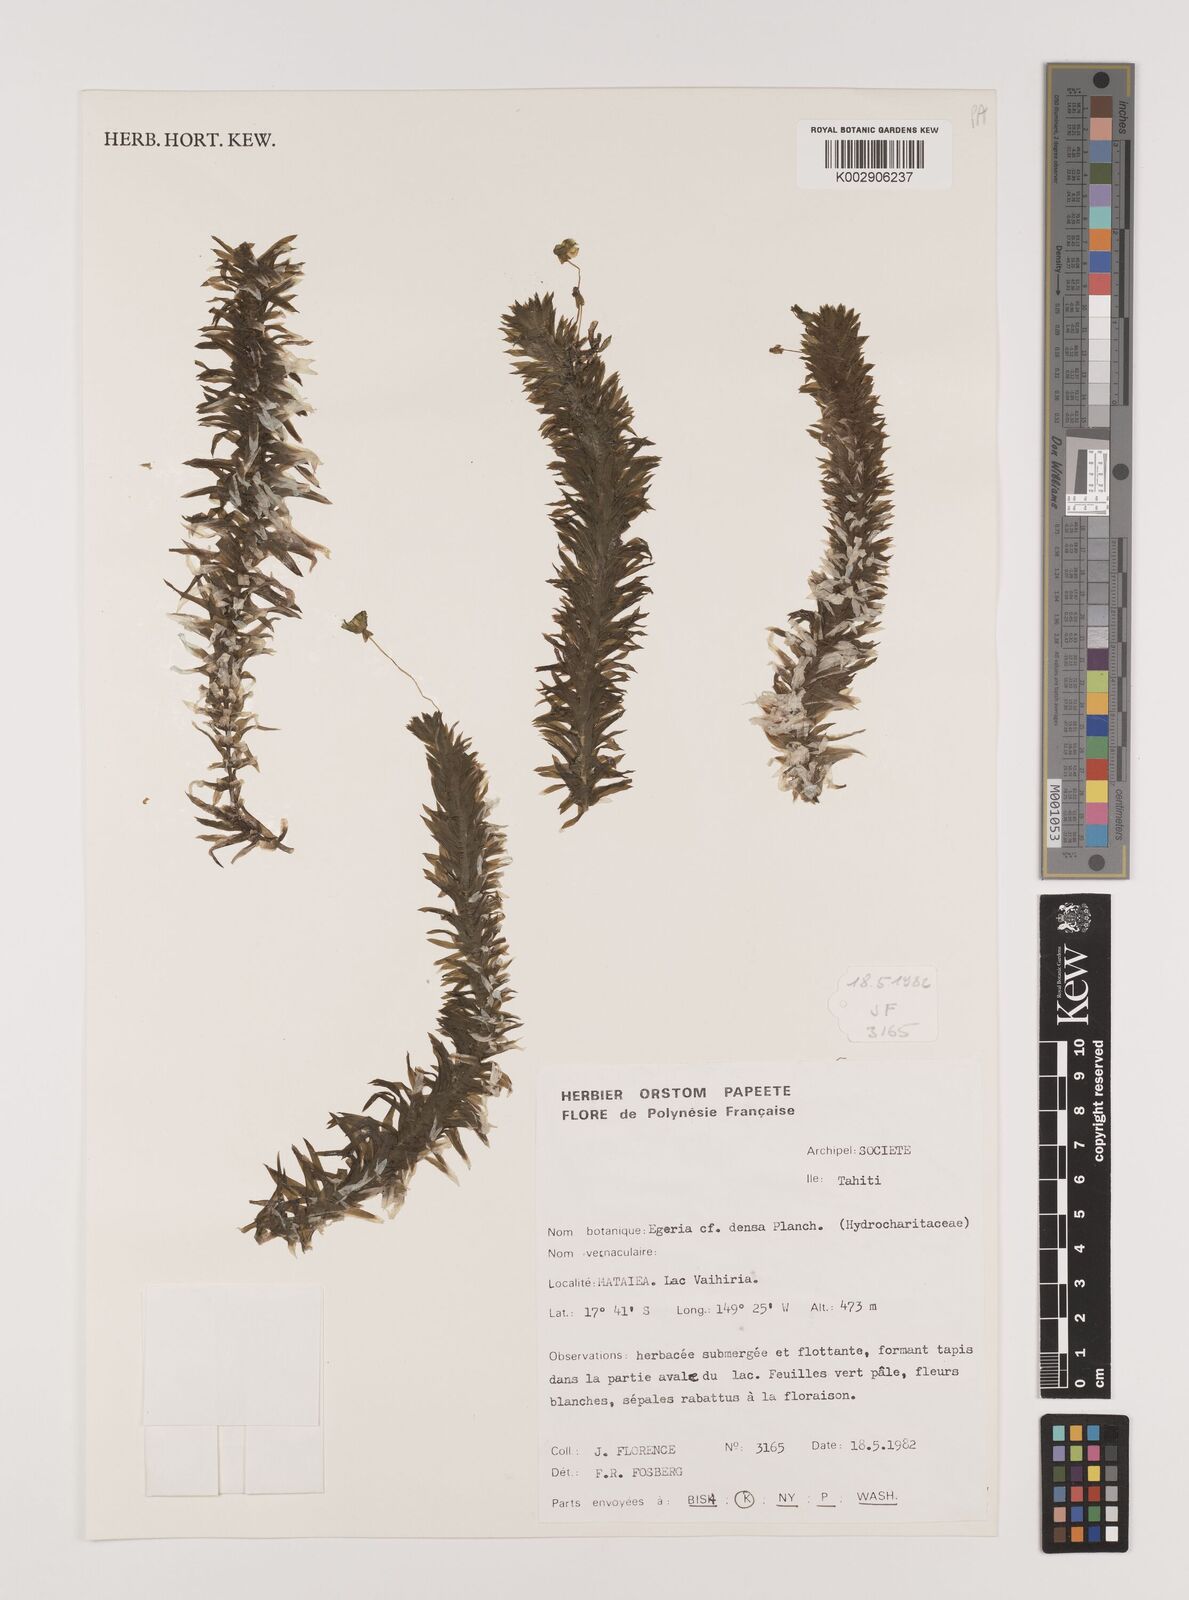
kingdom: Plantae
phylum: Tracheophyta
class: Liliopsida
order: Alismatales
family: Hydrocharitaceae
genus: Elodea
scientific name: Elodea densa
